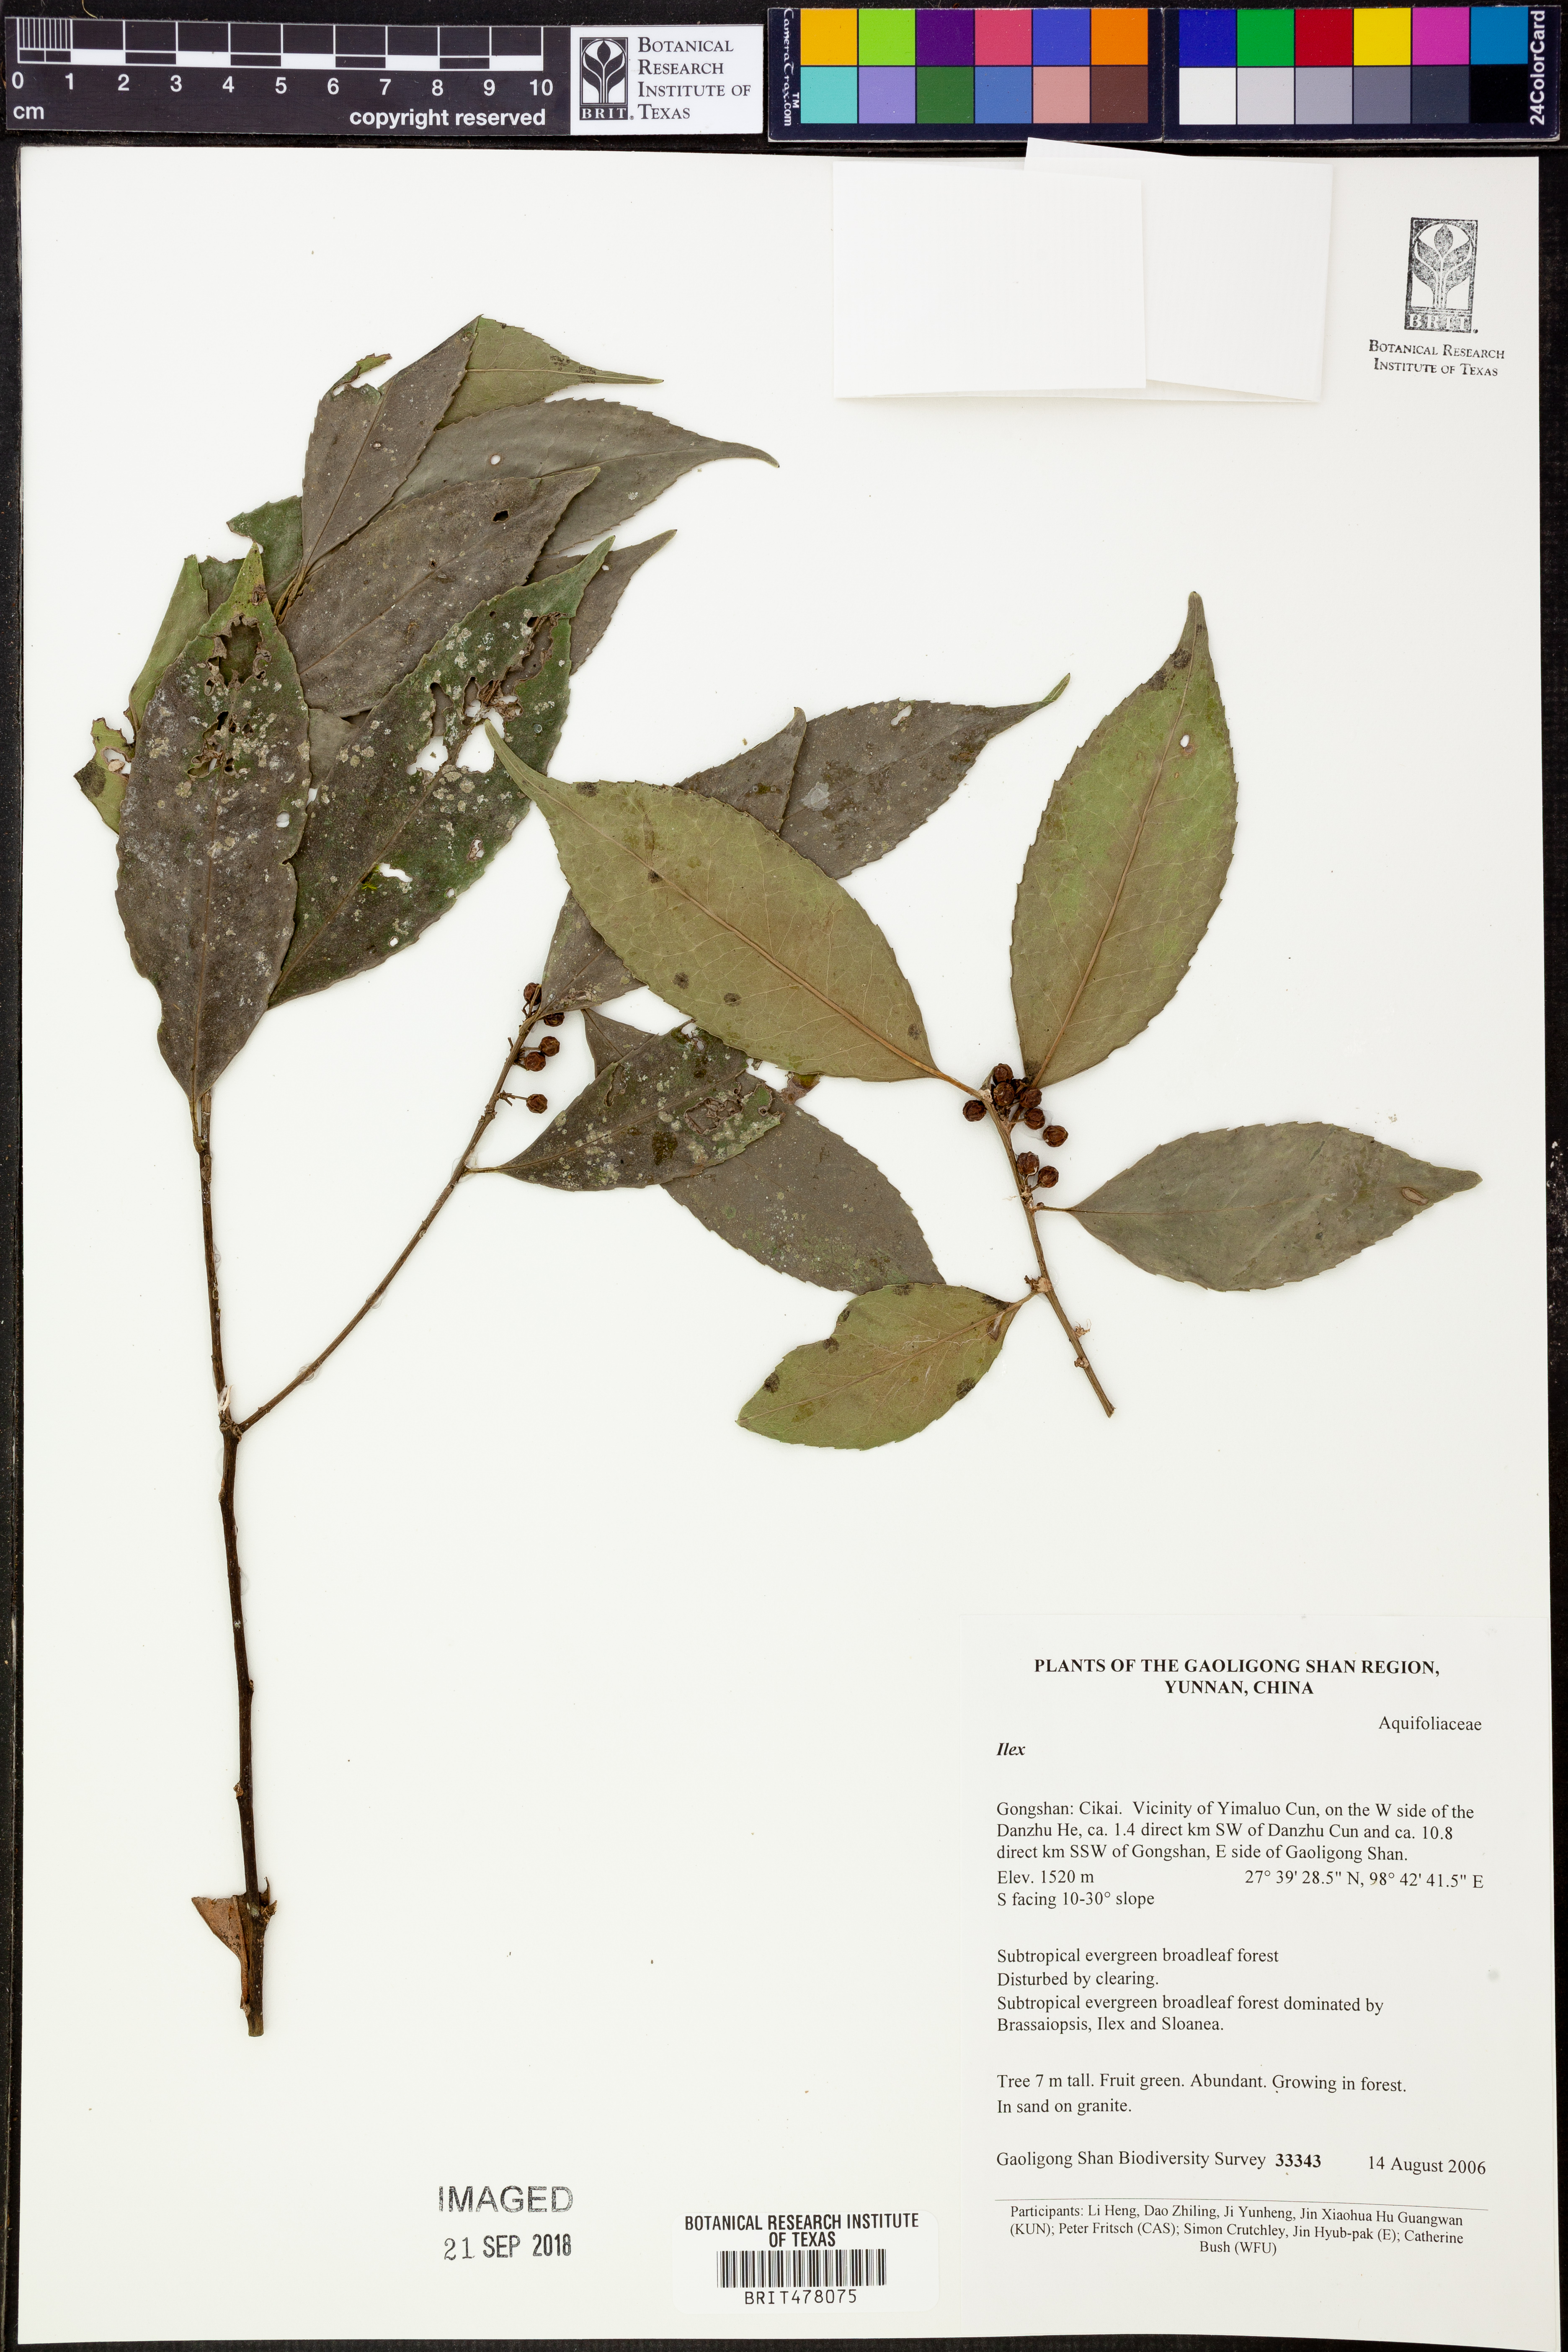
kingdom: Plantae
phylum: Tracheophyta
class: Magnoliopsida
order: Aquifoliales
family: Aquifoliaceae
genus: Ilex
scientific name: Ilex
